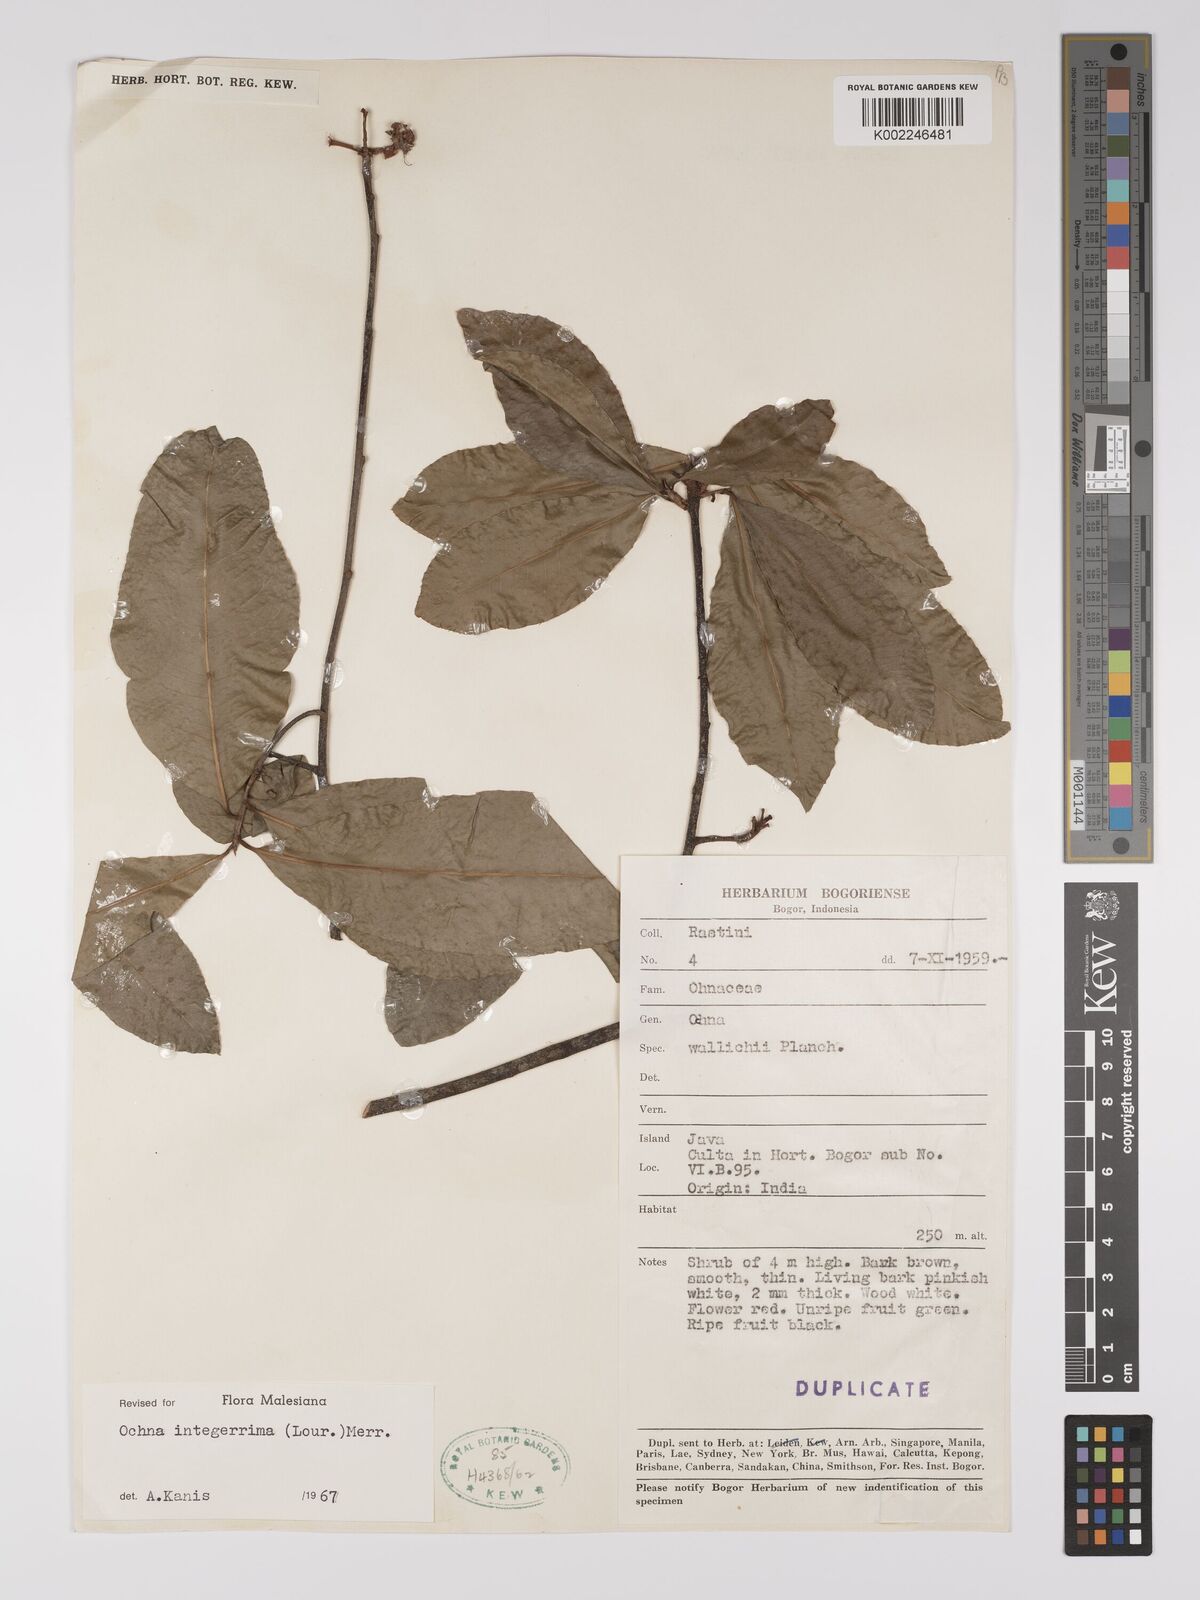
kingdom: Plantae
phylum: Tracheophyta
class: Magnoliopsida
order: Malpighiales
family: Ochnaceae
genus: Ochna
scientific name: Ochna integerrima
